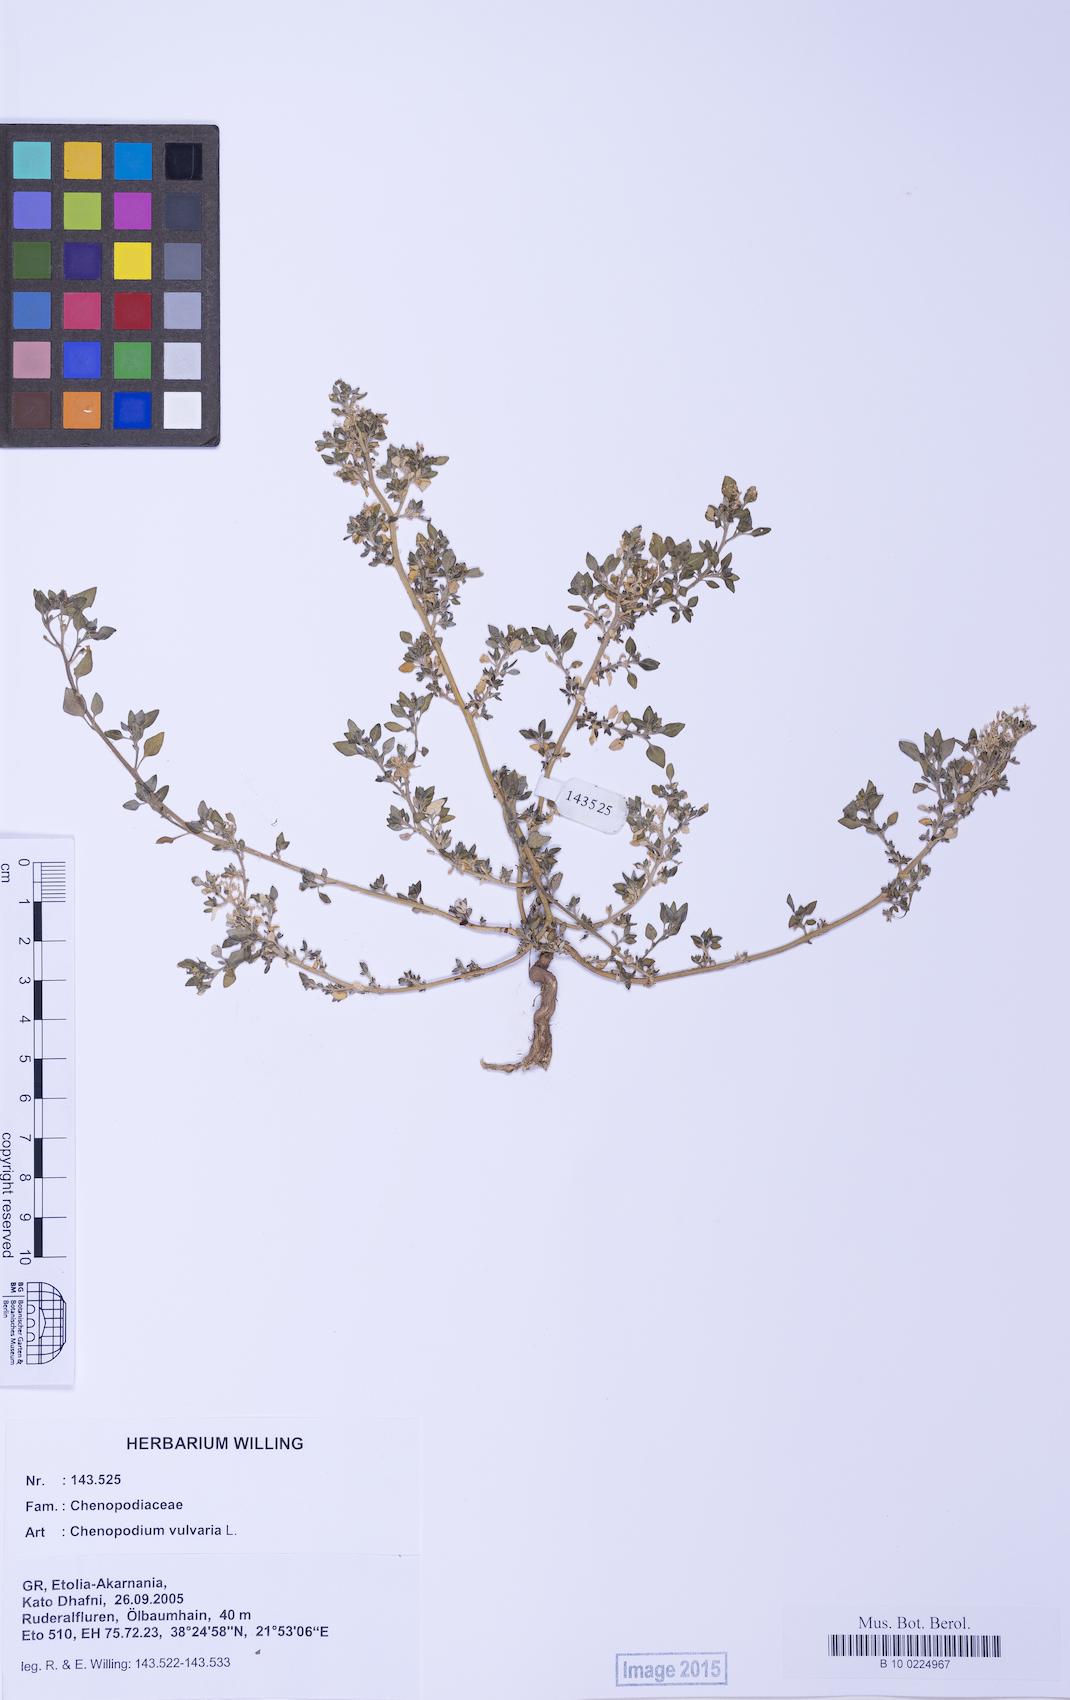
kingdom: Plantae
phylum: Tracheophyta
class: Magnoliopsida
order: Caryophyllales
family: Amaranthaceae
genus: Chenopodium
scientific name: Chenopodium vulvaria
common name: Stinking goosefoot
